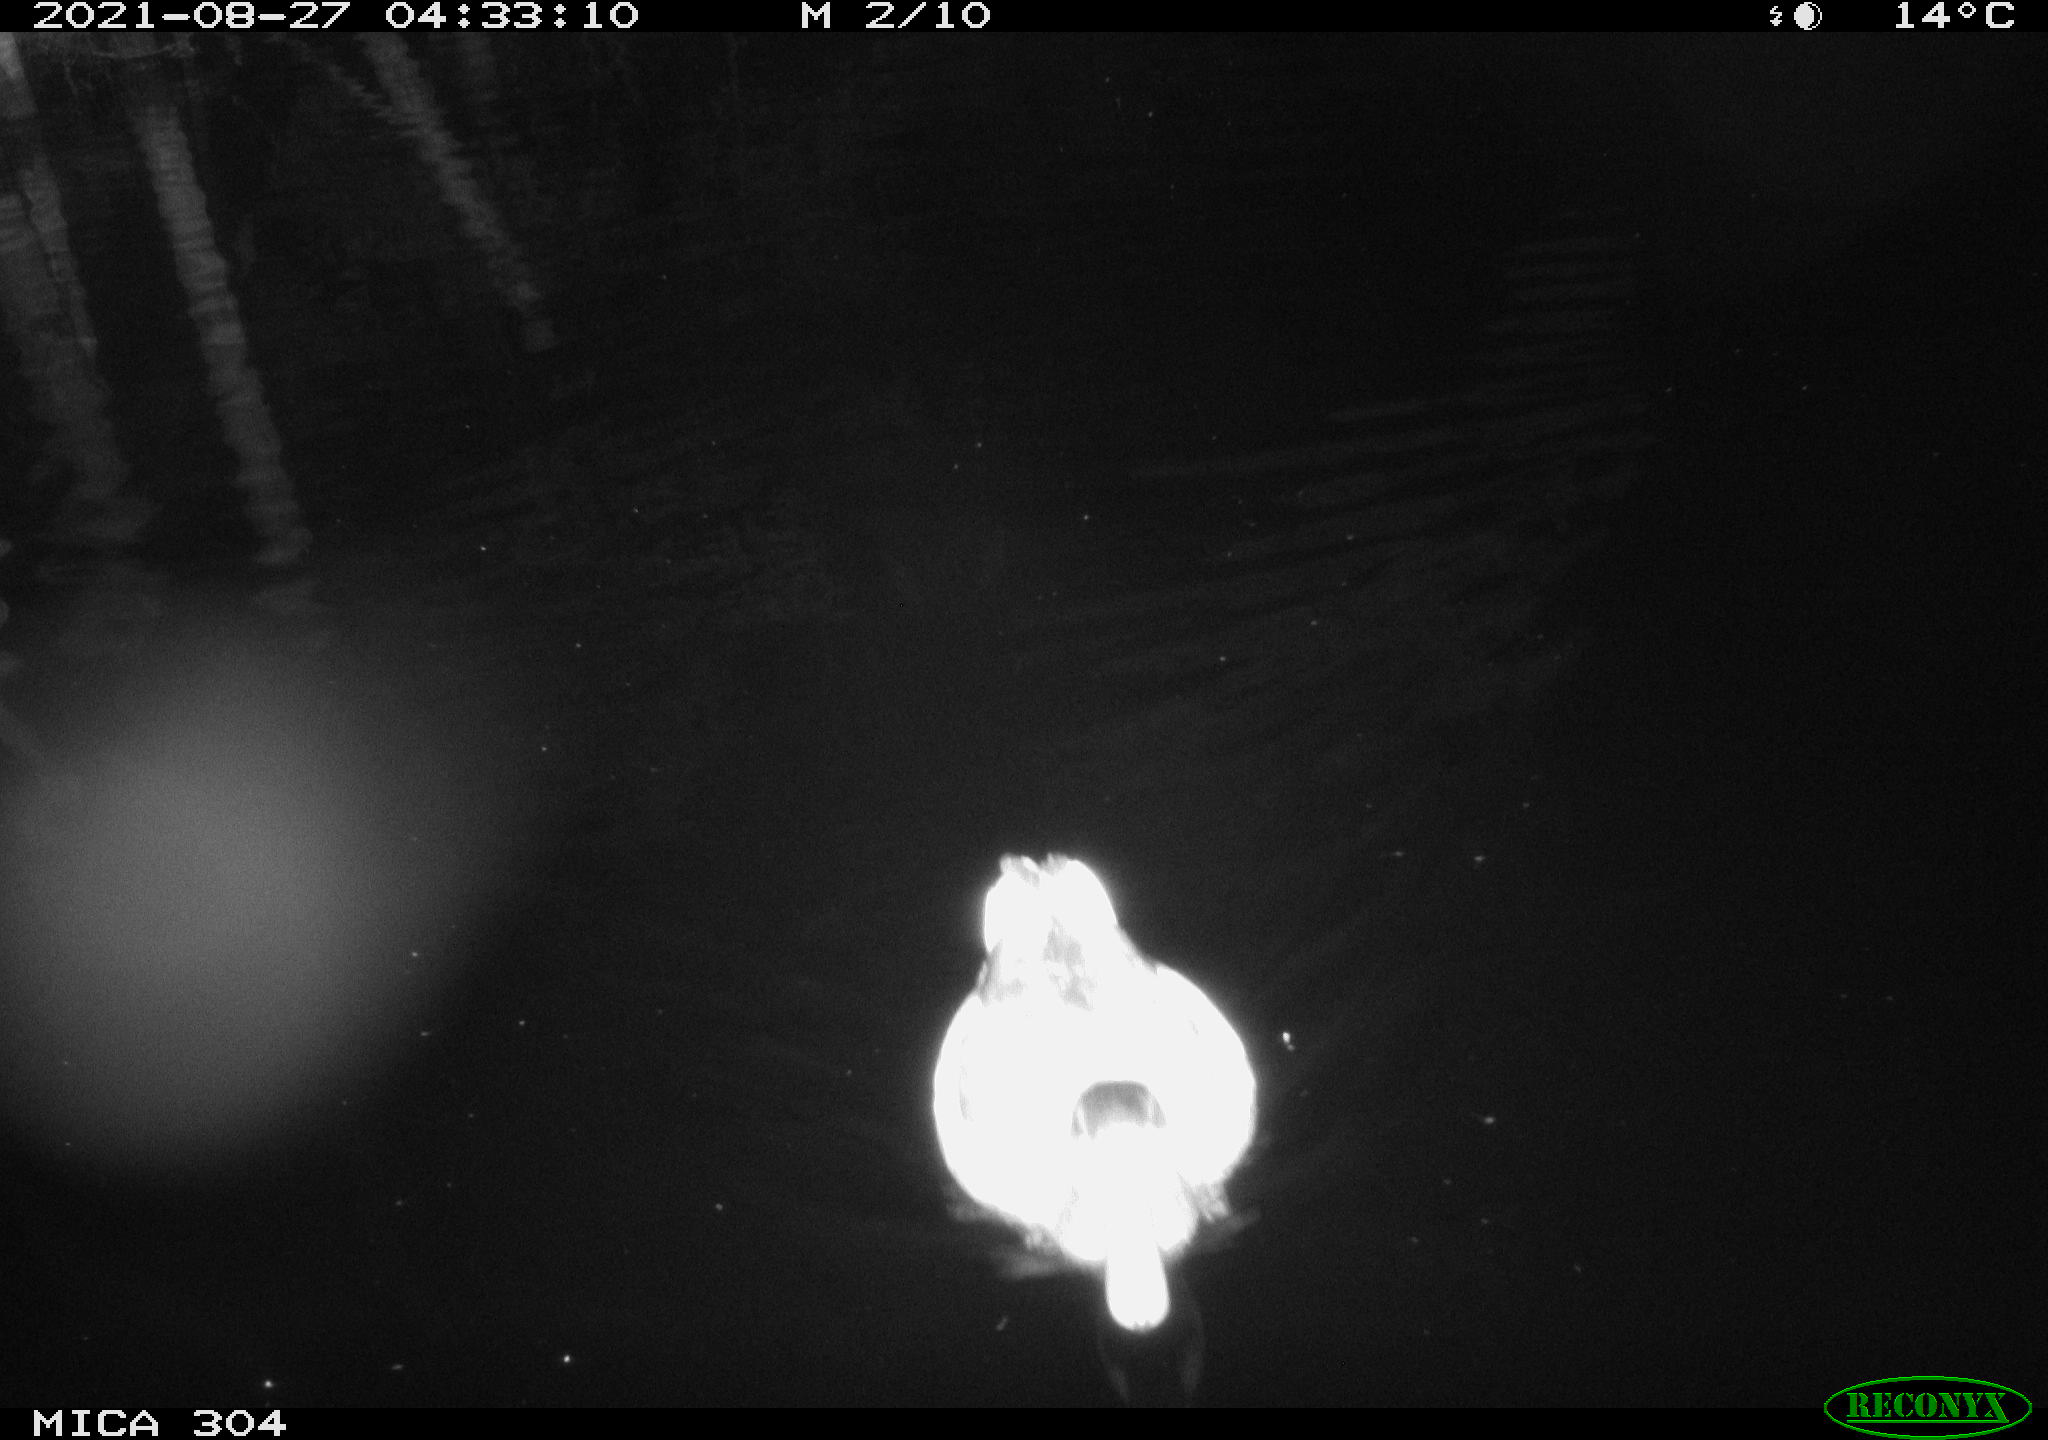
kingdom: Animalia
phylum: Chordata
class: Aves
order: Anseriformes
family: Anatidae
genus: Anas
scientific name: Anas platyrhynchos
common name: Mallard
